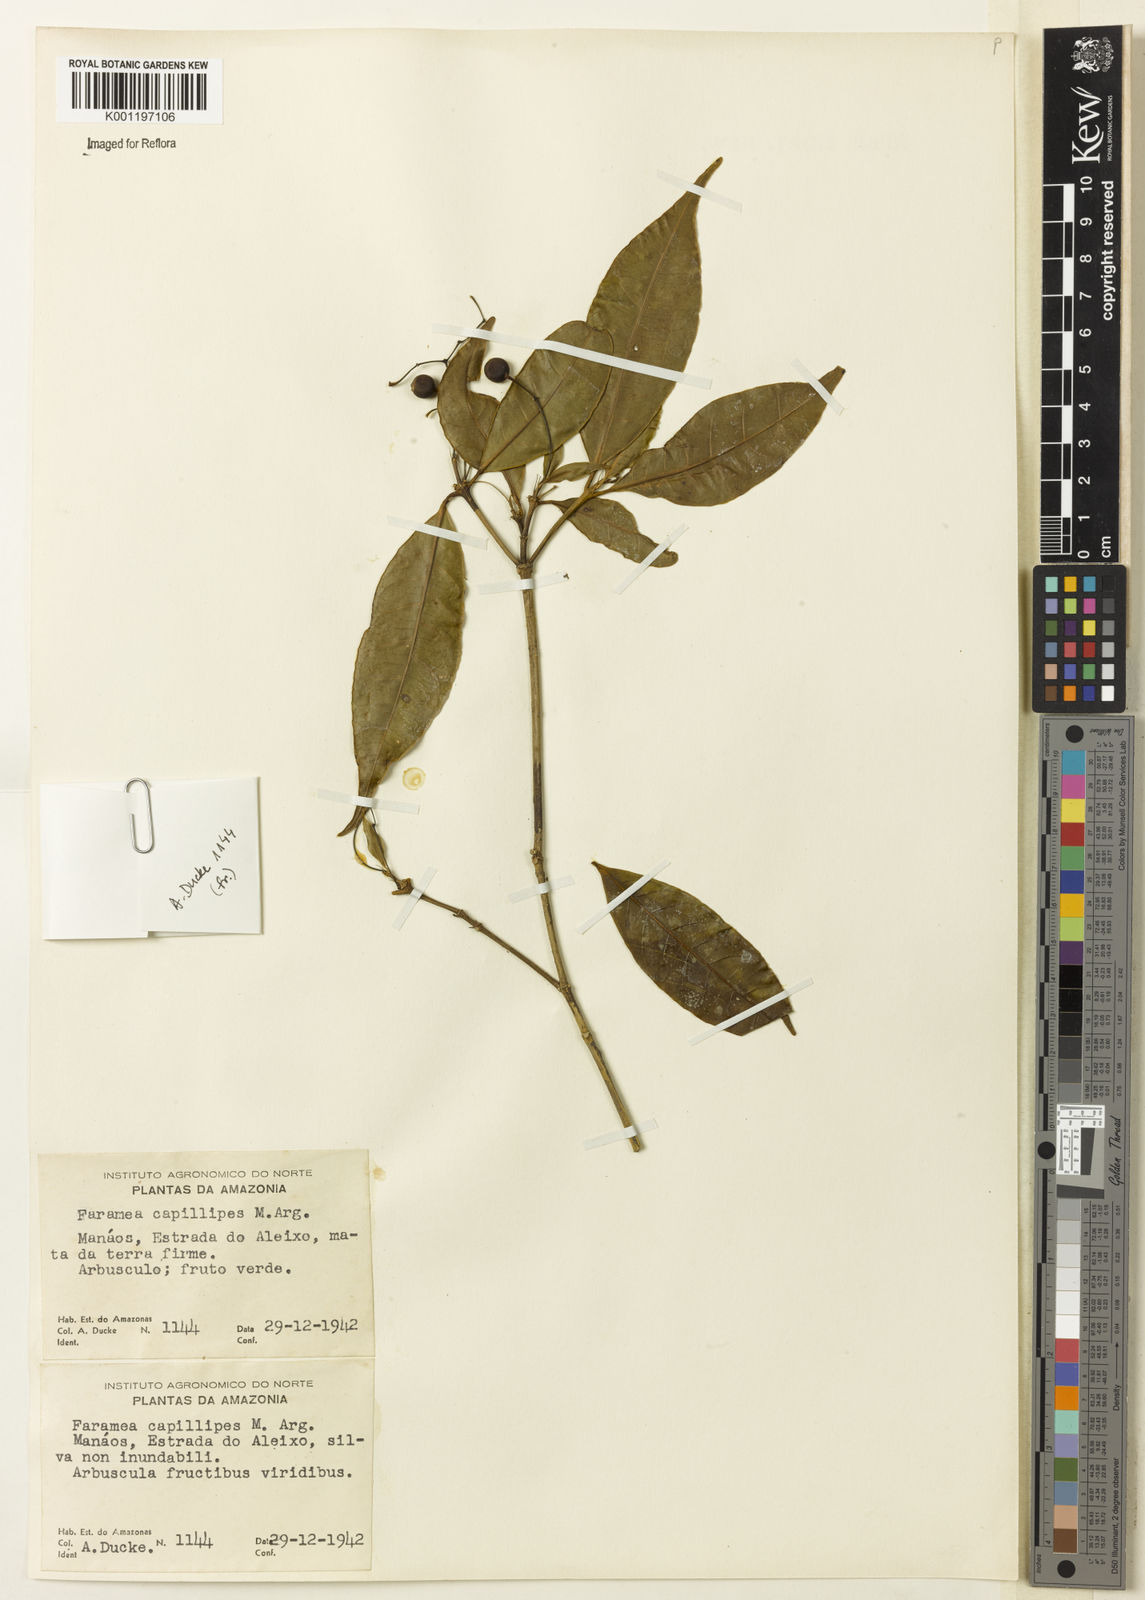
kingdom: Plantae
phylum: Tracheophyta
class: Magnoliopsida
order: Gentianales
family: Rubiaceae
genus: Faramea
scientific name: Faramea
